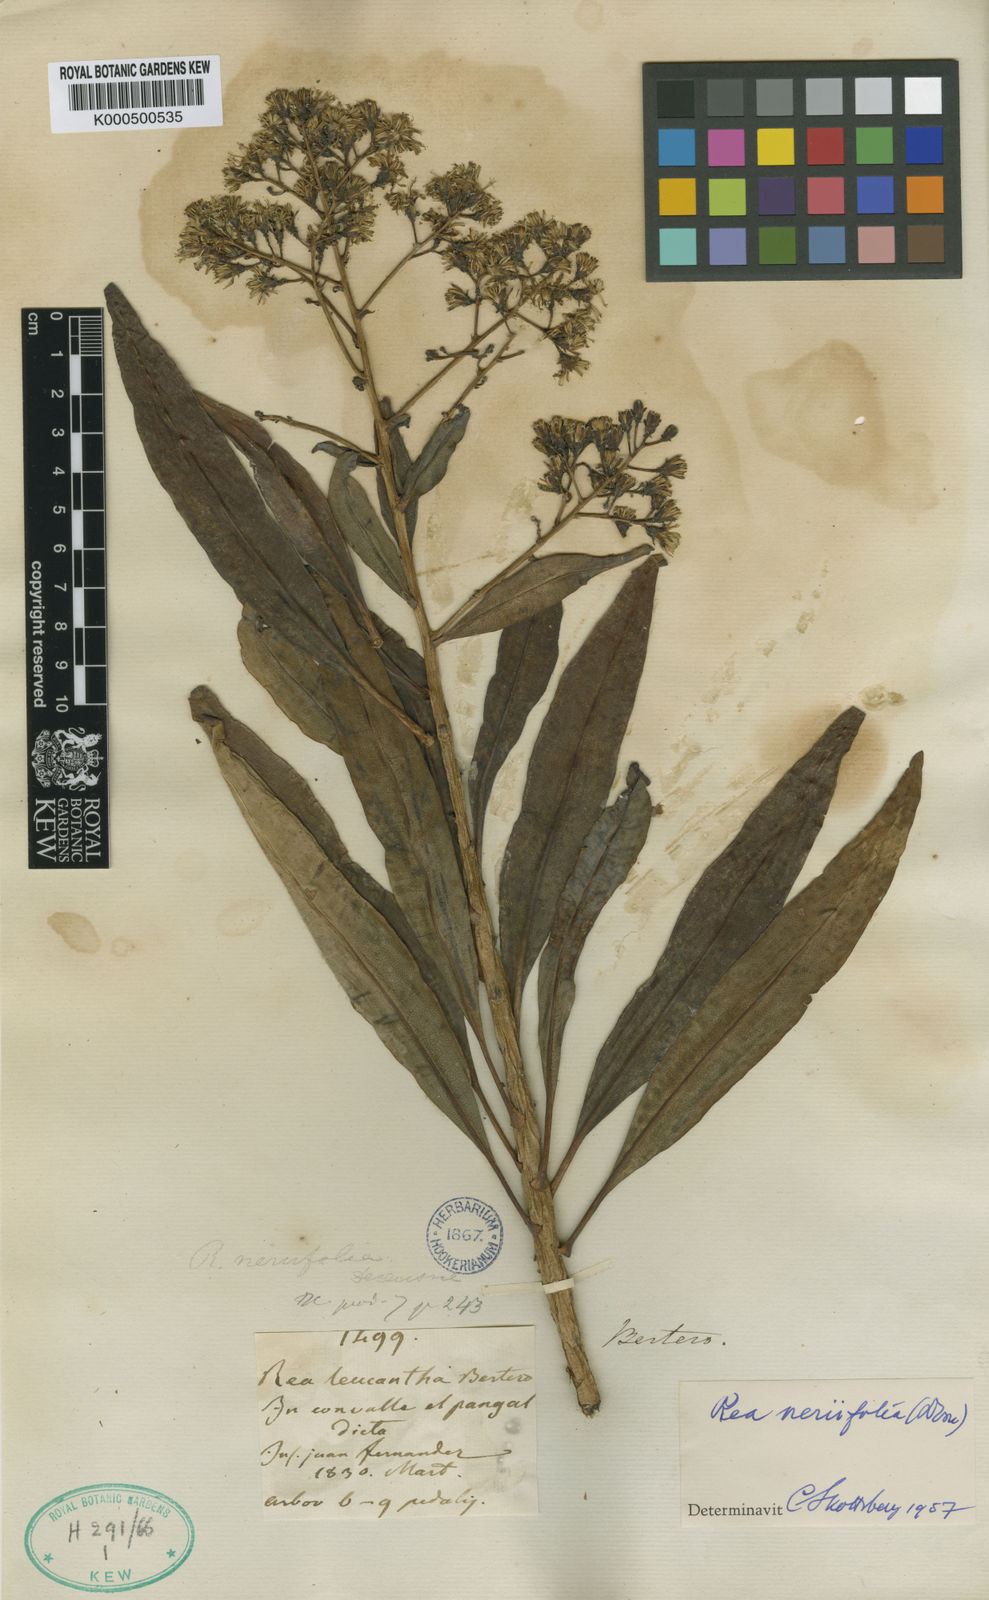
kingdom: Plantae
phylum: Tracheophyta
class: Magnoliopsida
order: Asterales
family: Asteraceae
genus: Sonchus
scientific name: Sonchus neriifolius
